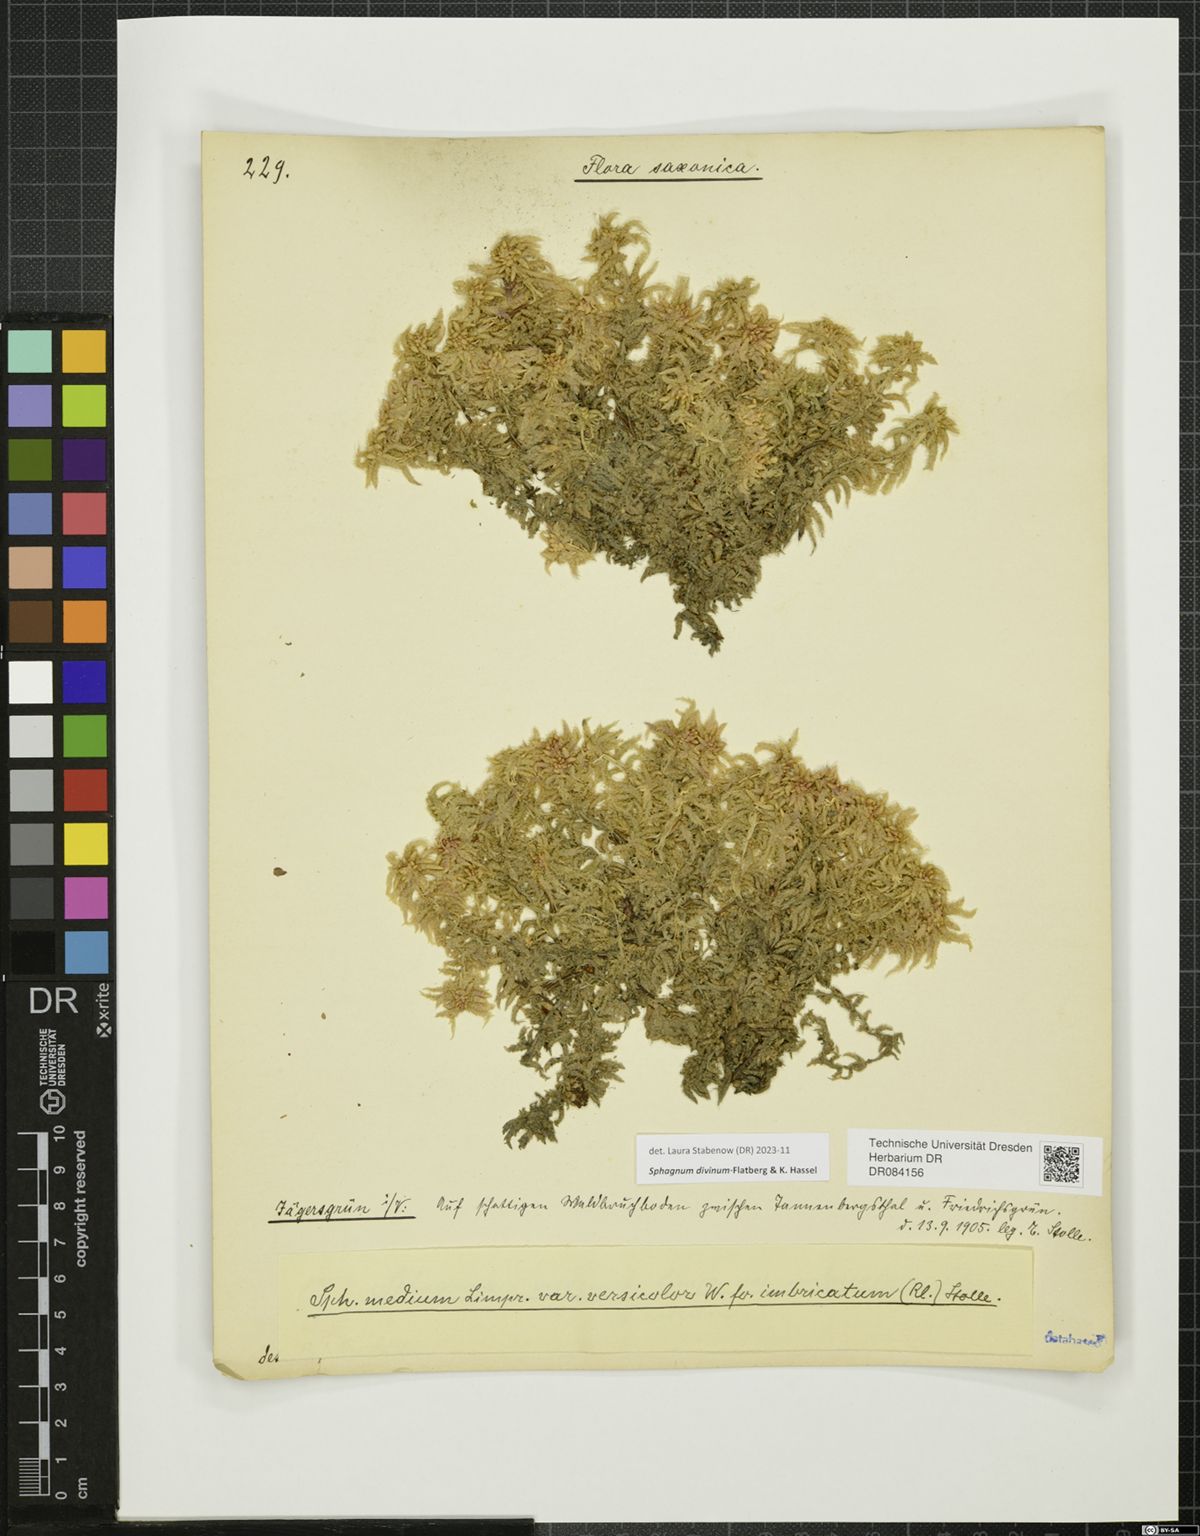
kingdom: Plantae
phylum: Bryophyta
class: Sphagnopsida
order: Sphagnales
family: Sphagnaceae
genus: Sphagnum
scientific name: Sphagnum divinum
